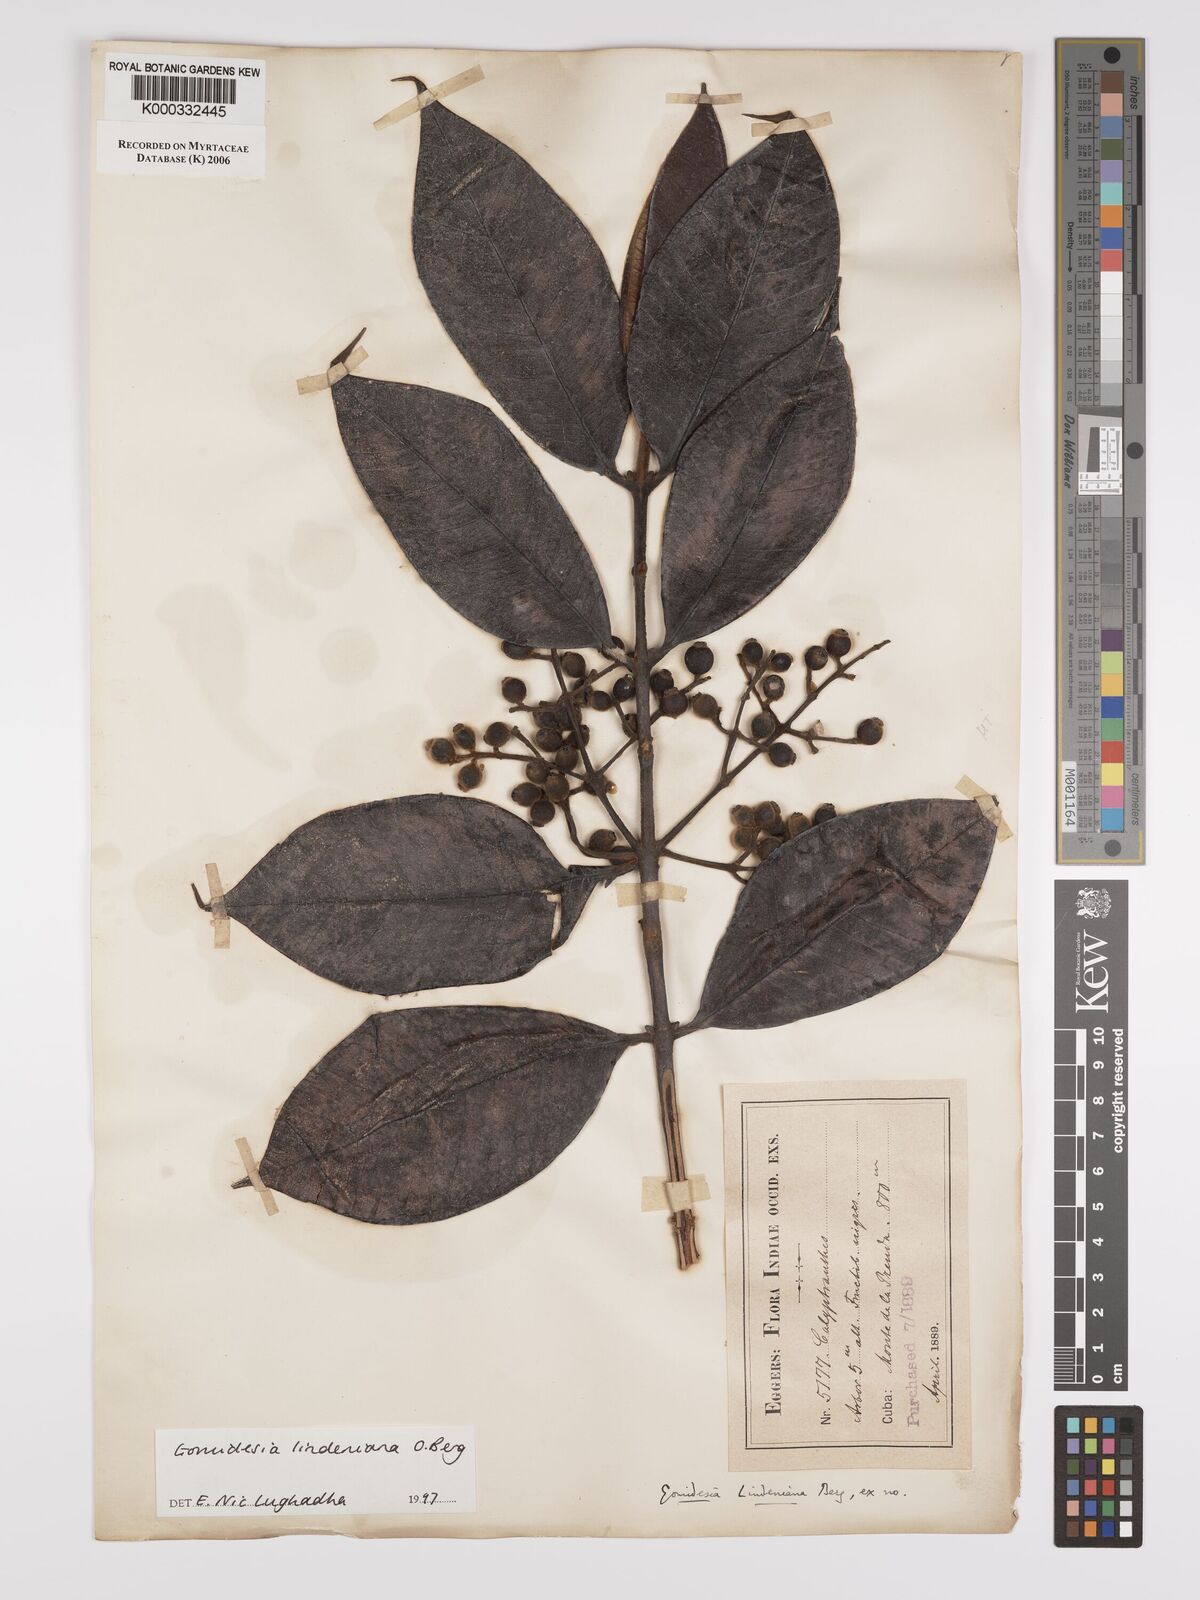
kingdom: Plantae
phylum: Tracheophyta
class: Magnoliopsida
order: Myrtales
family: Myrtaceae
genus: Myrcia
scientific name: Myrcia fenzliana
